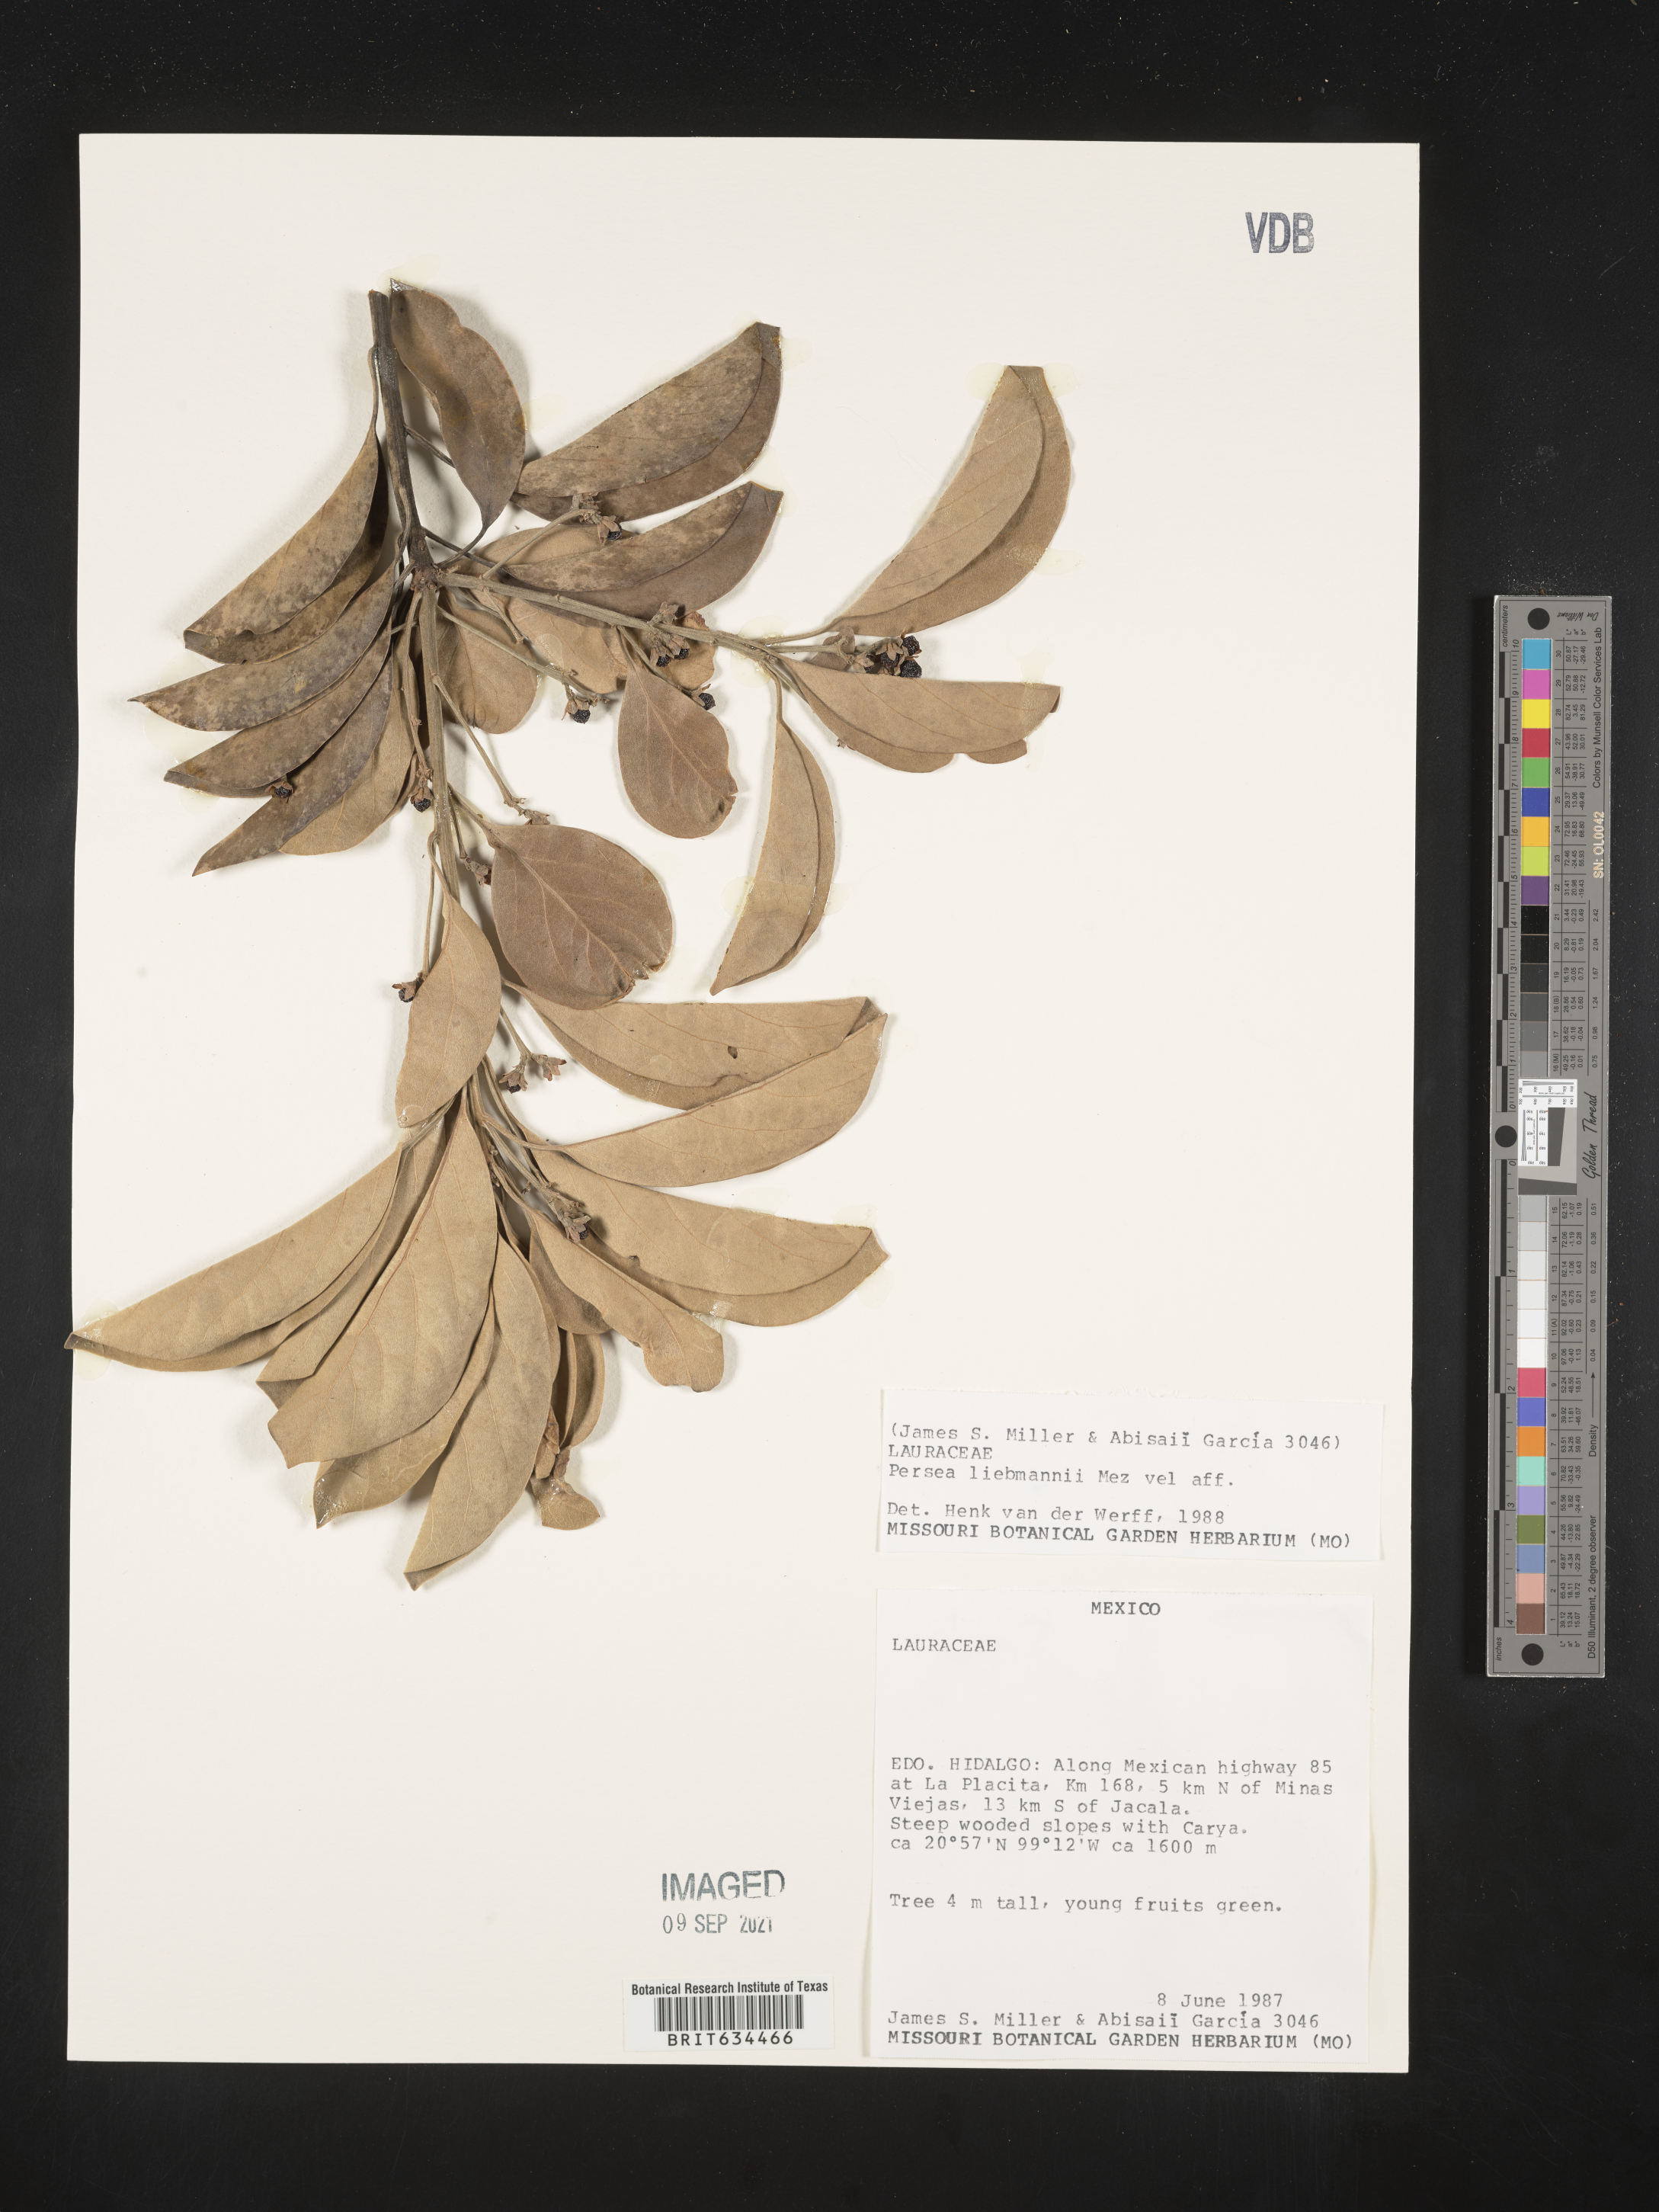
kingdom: Plantae
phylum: Tracheophyta
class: Magnoliopsida
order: Laurales
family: Lauraceae
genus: Phoebe
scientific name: Phoebe
